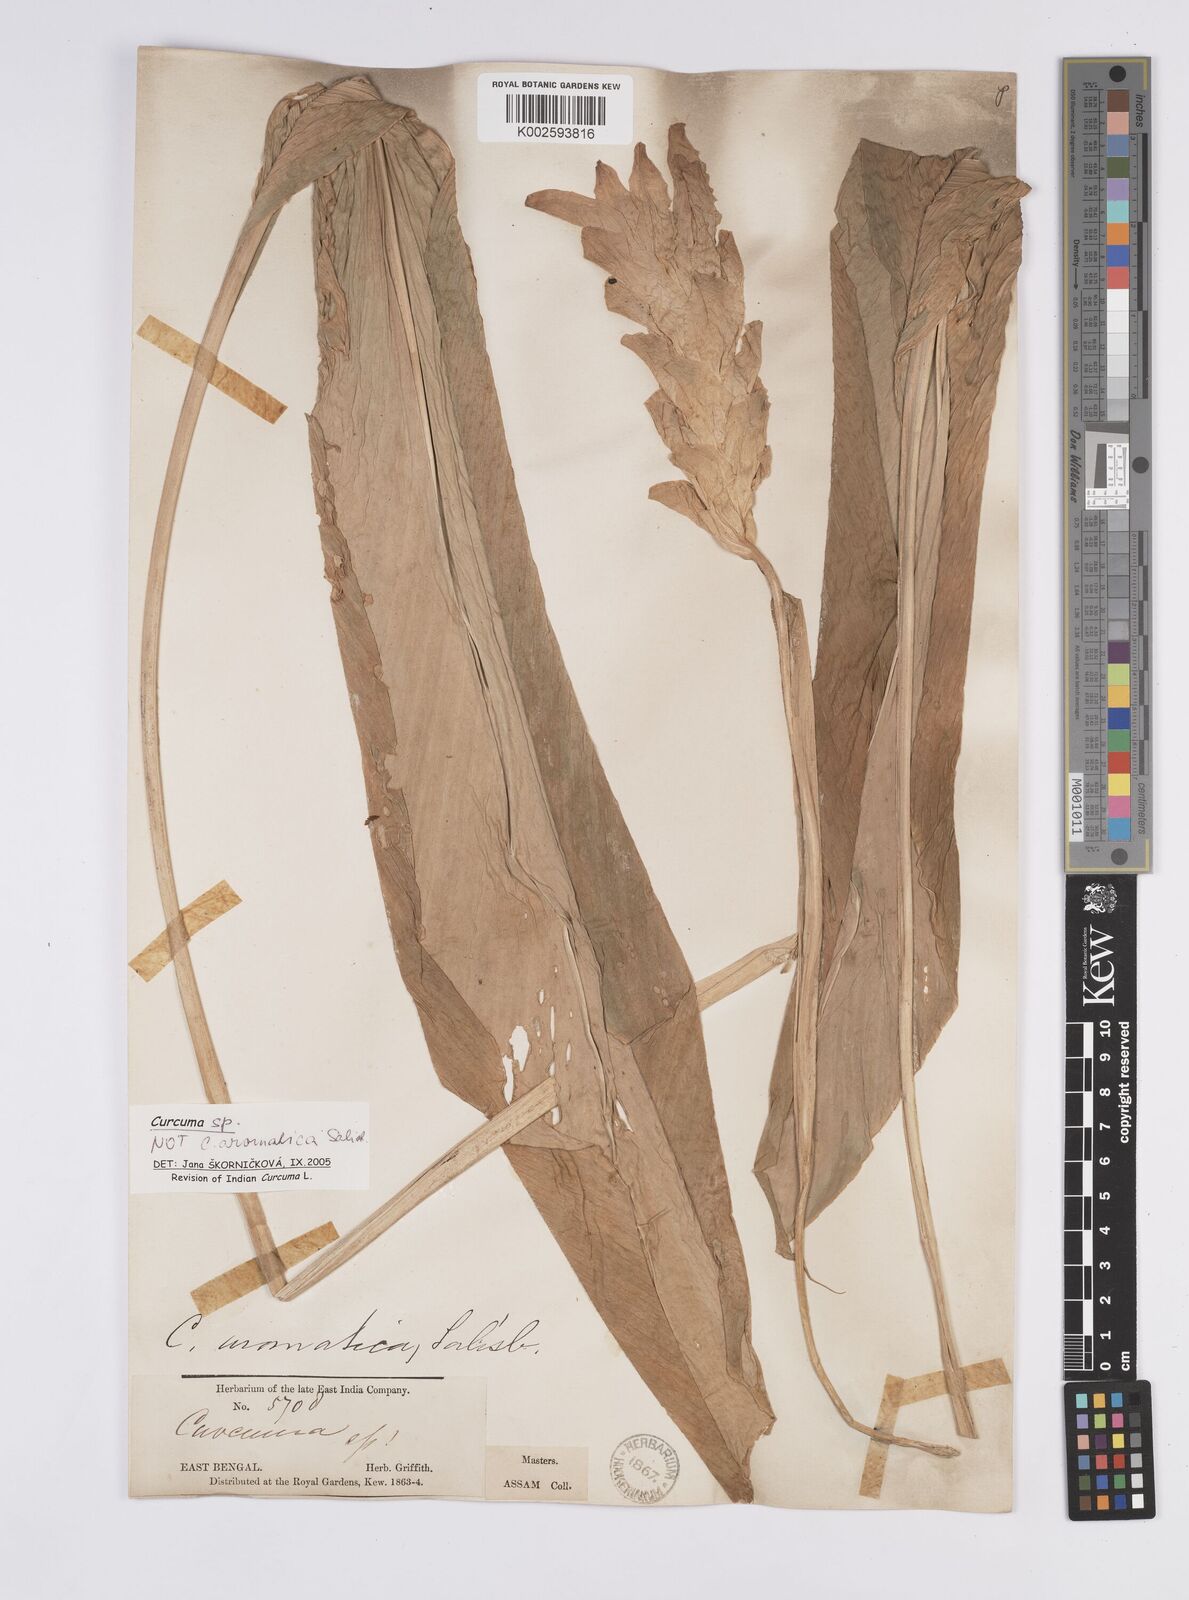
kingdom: Plantae
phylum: Tracheophyta
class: Liliopsida
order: Zingiberales
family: Zingiberaceae
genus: Curcuma
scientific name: Curcuma leucorrhiza
